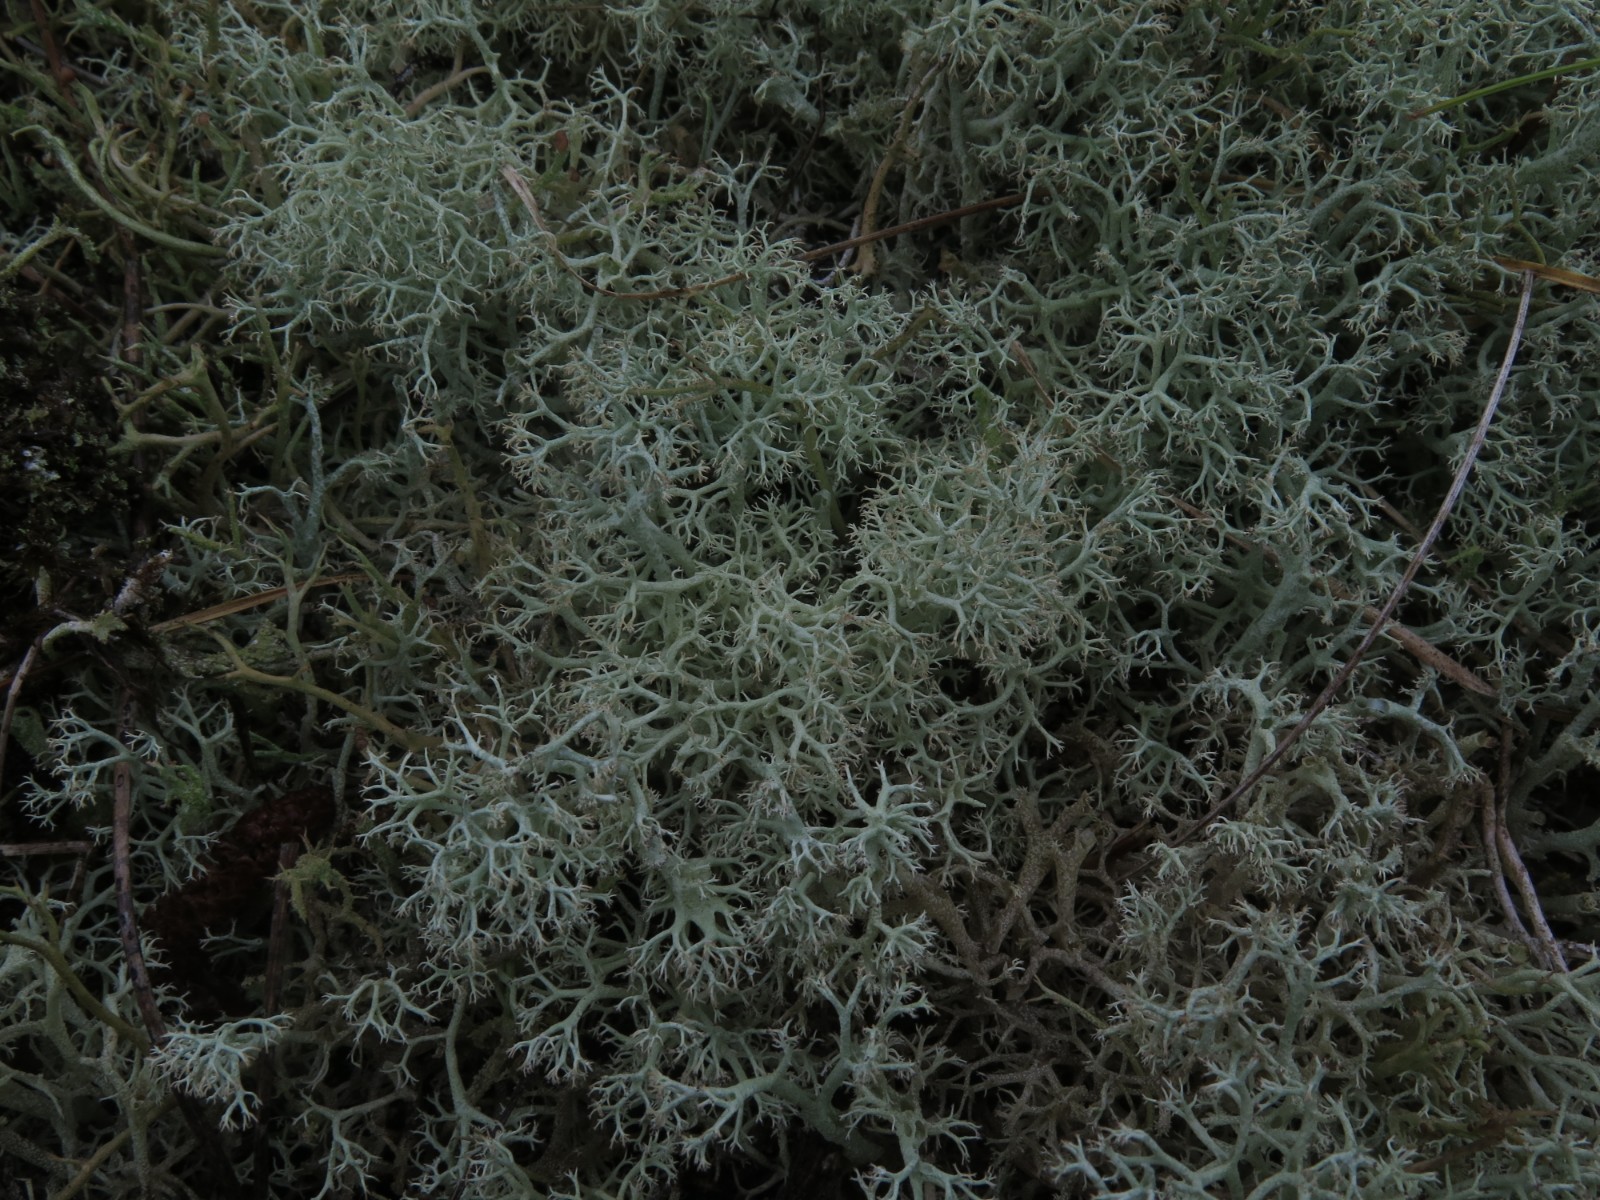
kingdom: Fungi
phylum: Ascomycota
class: Lecanoromycetes
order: Lecanorales
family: Cladoniaceae
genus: Cladonia
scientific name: Cladonia portentosa
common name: hede-rensdyrlav
